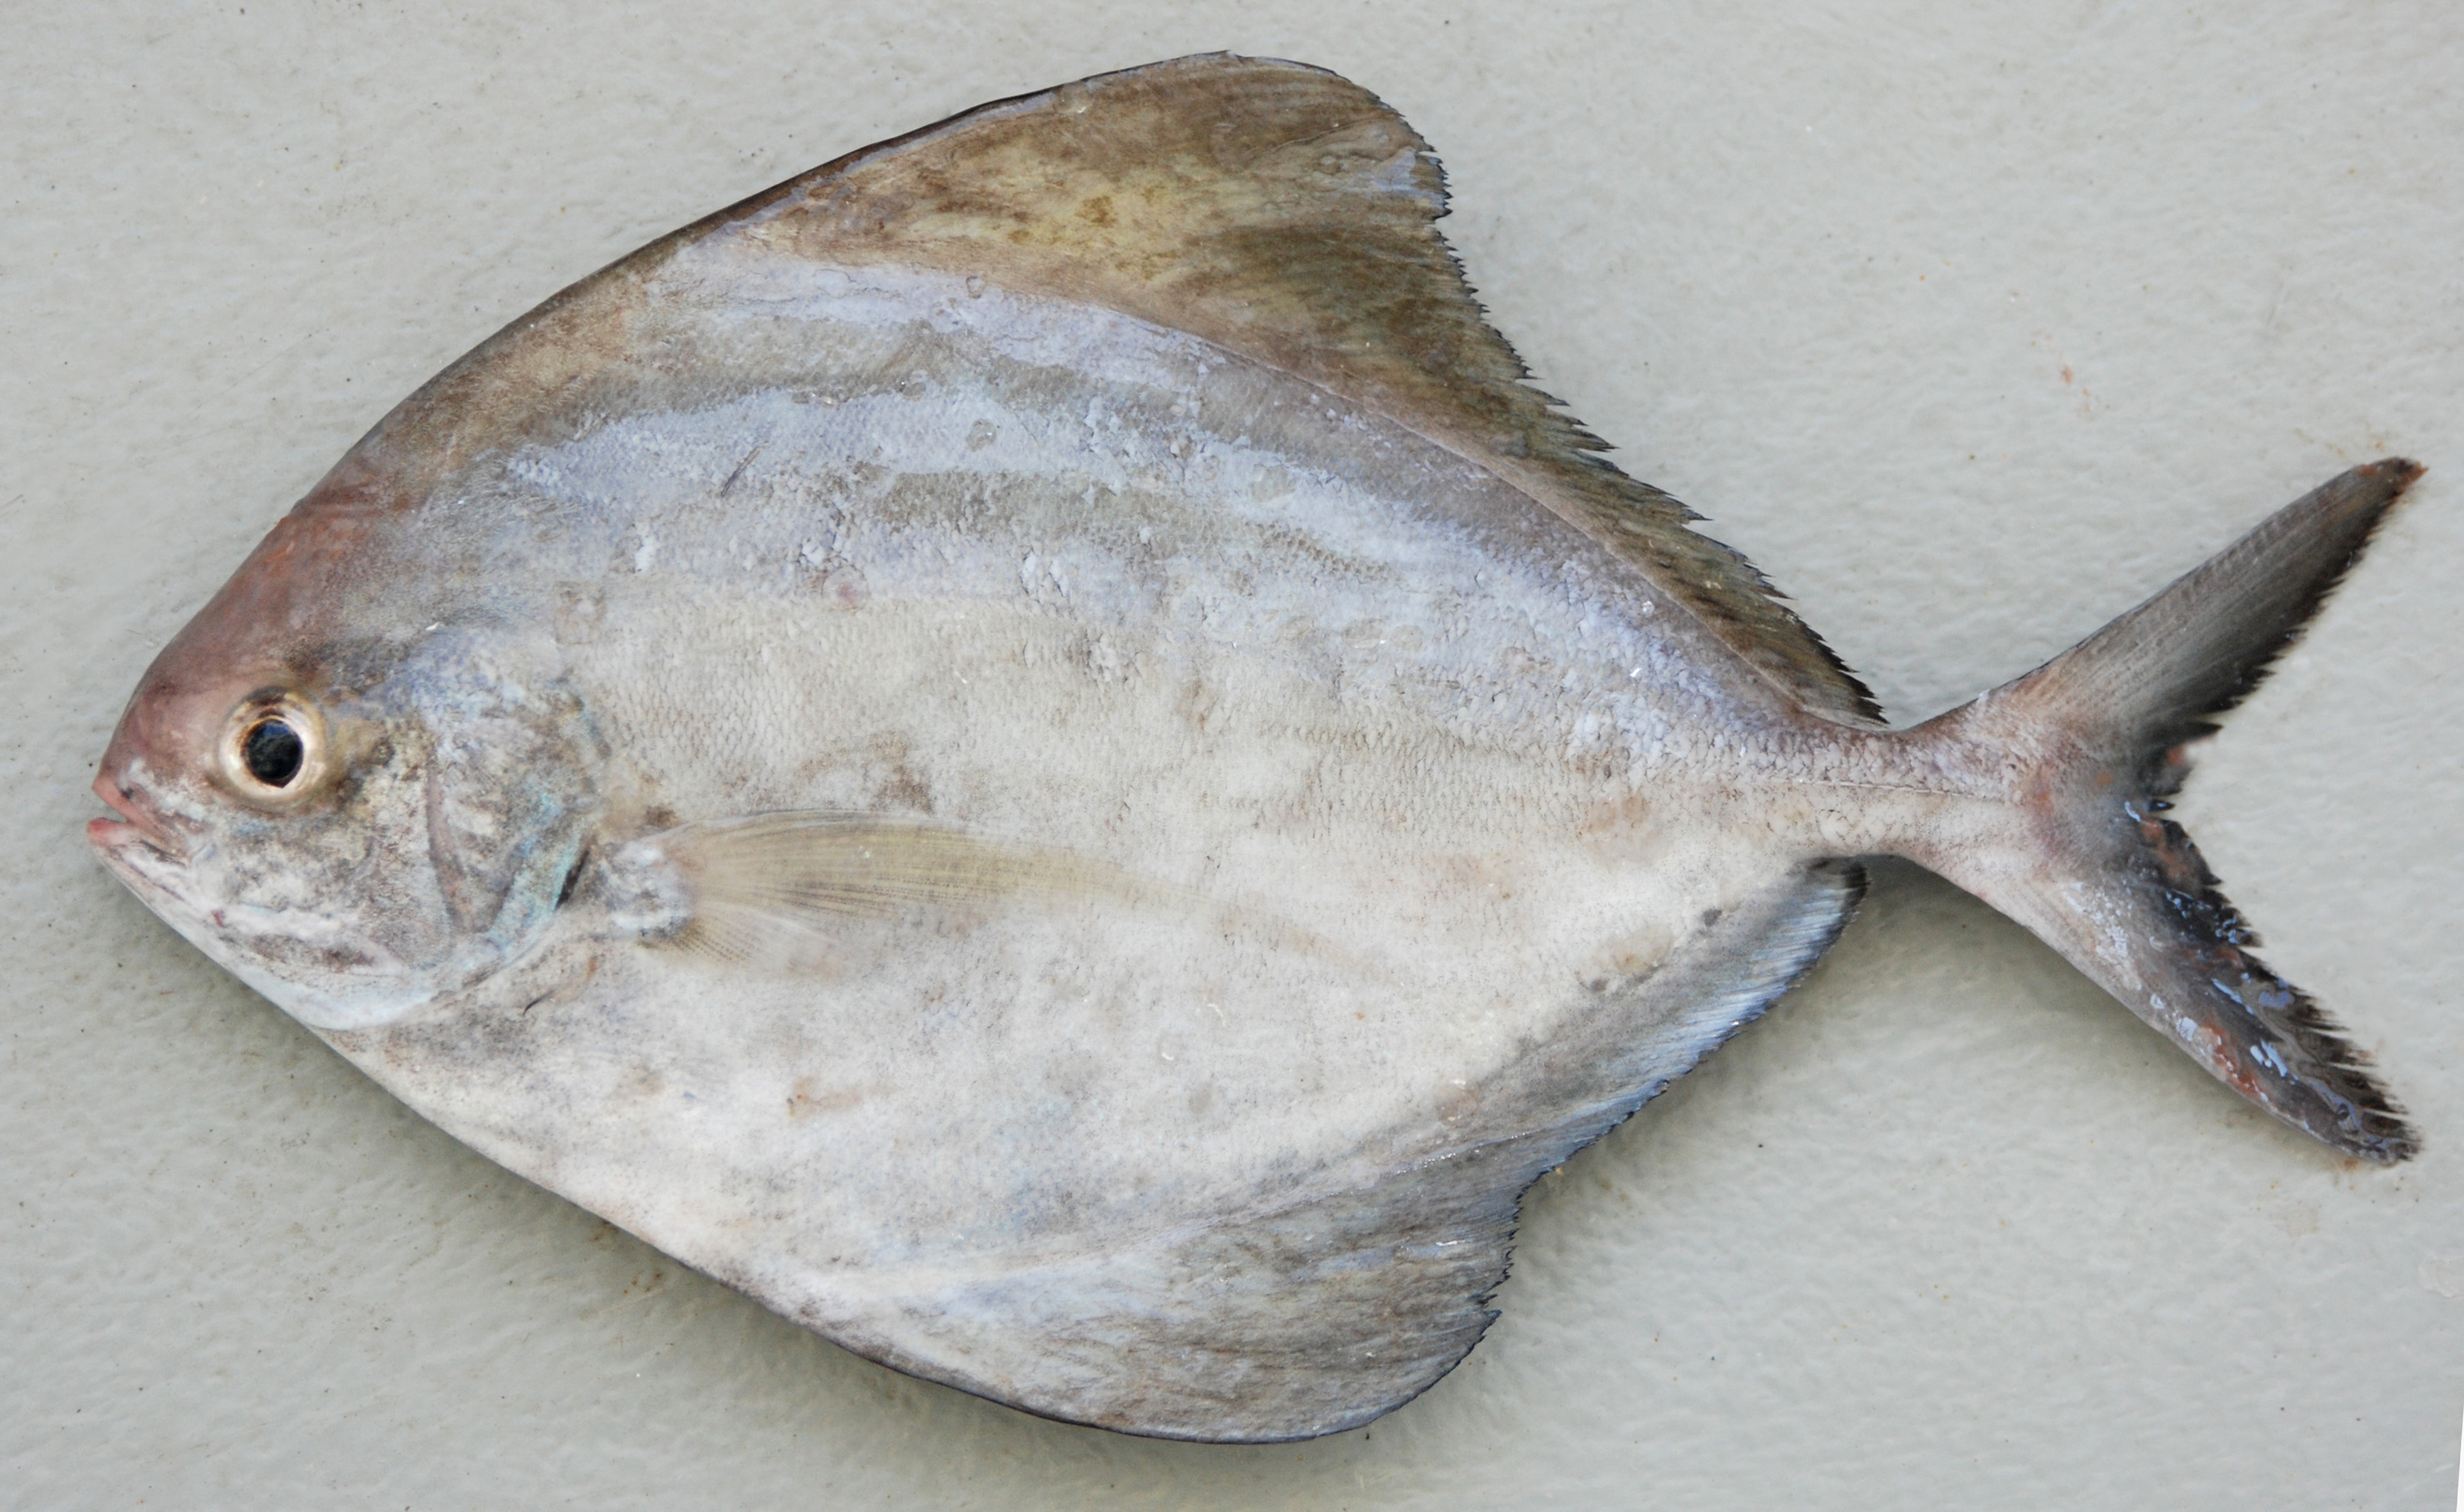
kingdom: Animalia
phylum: Chordata
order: Perciformes
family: Carangidae
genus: Parastromateus
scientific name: Parastromateus niger
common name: Black pomfret
